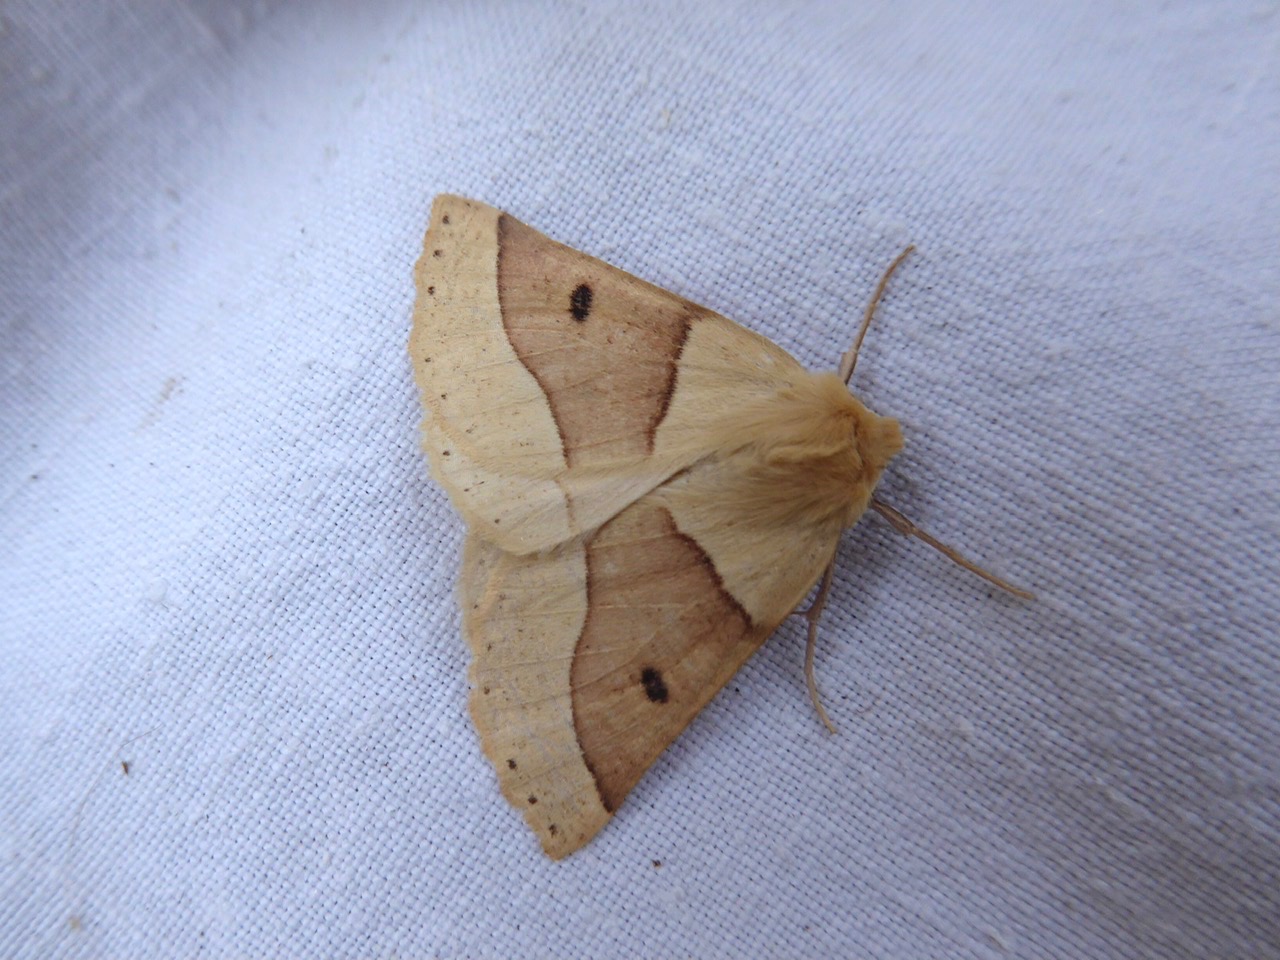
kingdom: Animalia
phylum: Arthropoda
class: Insecta
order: Lepidoptera
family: Geometridae
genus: Crocallis
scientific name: Crocallis elinguaria
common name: Okkergul rovmåler
